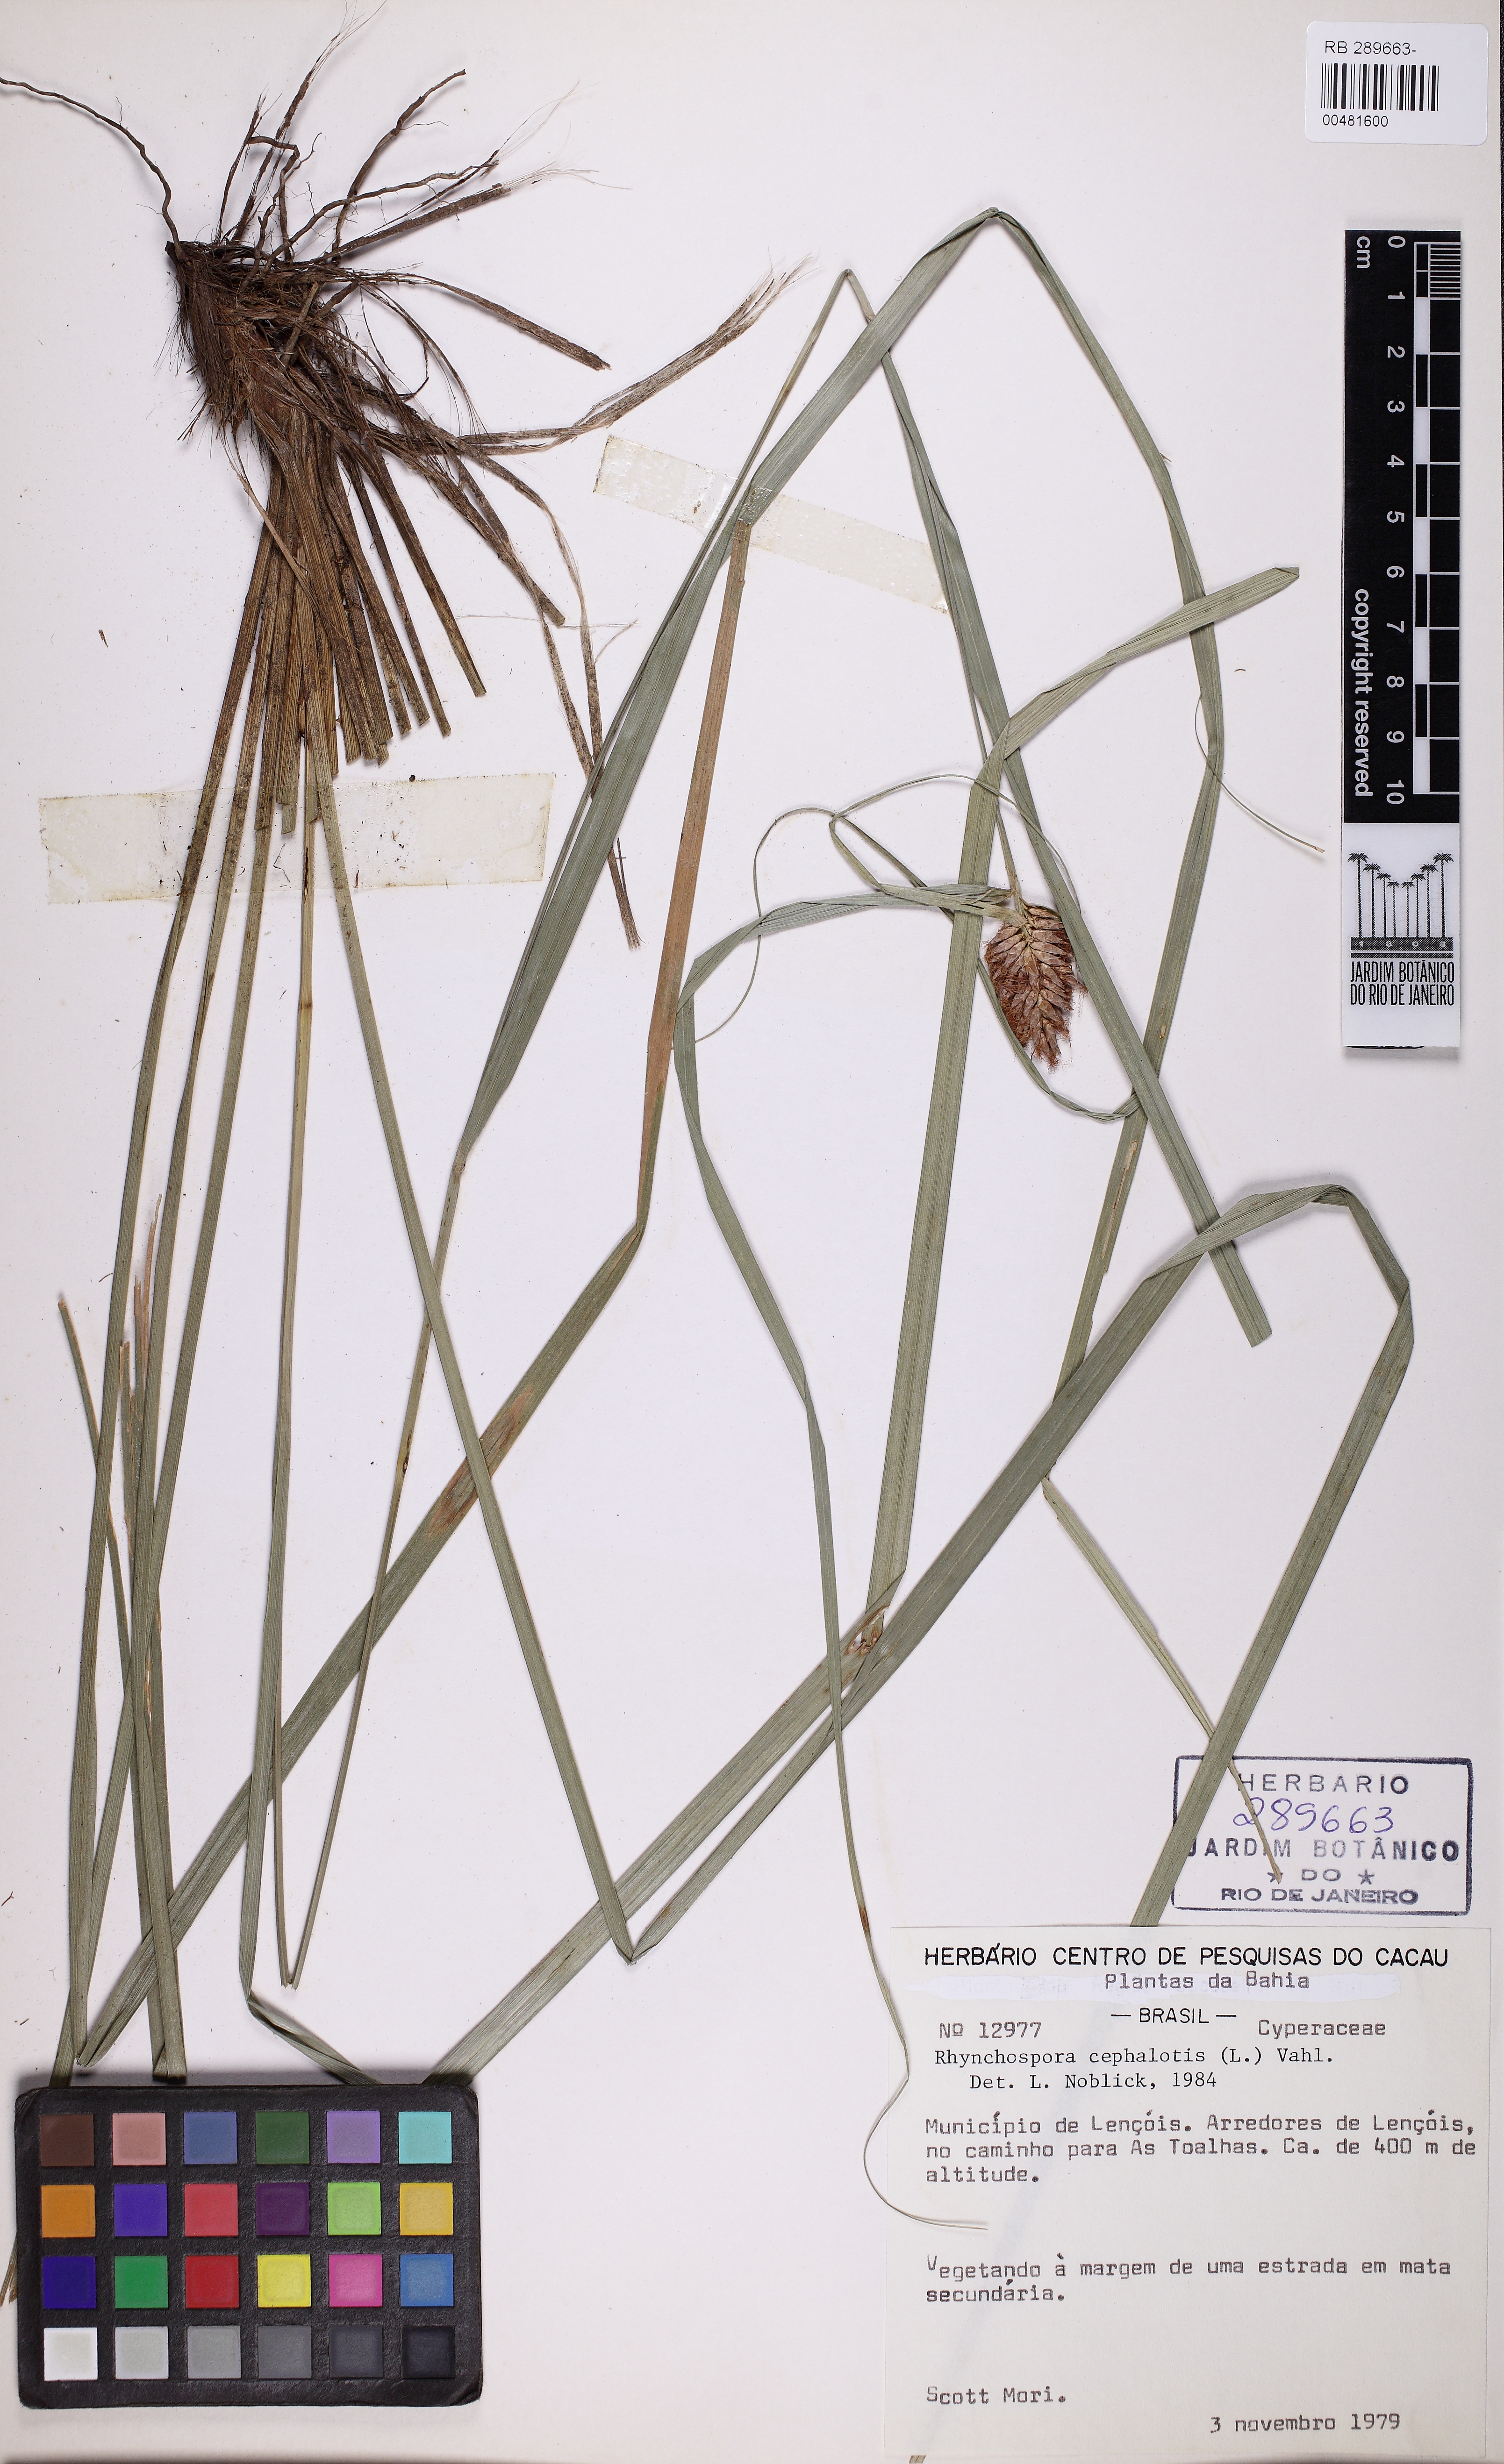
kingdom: Plantae
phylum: Tracheophyta
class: Liliopsida
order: Poales
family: Cyperaceae
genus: Rhynchospora
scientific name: Rhynchospora cephalotes
